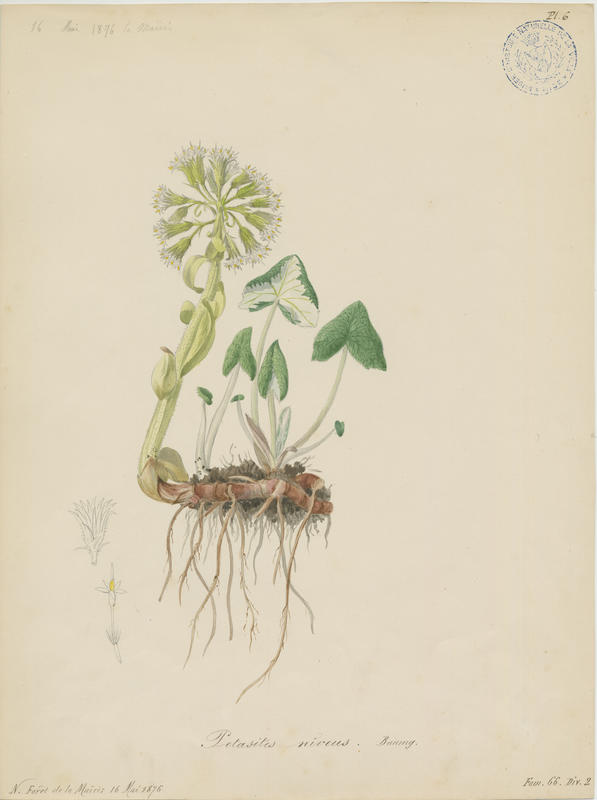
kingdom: Plantae
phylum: Tracheophyta
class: Magnoliopsida
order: Asterales
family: Asteraceae
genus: Petasites
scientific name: Petasites paradoxus
